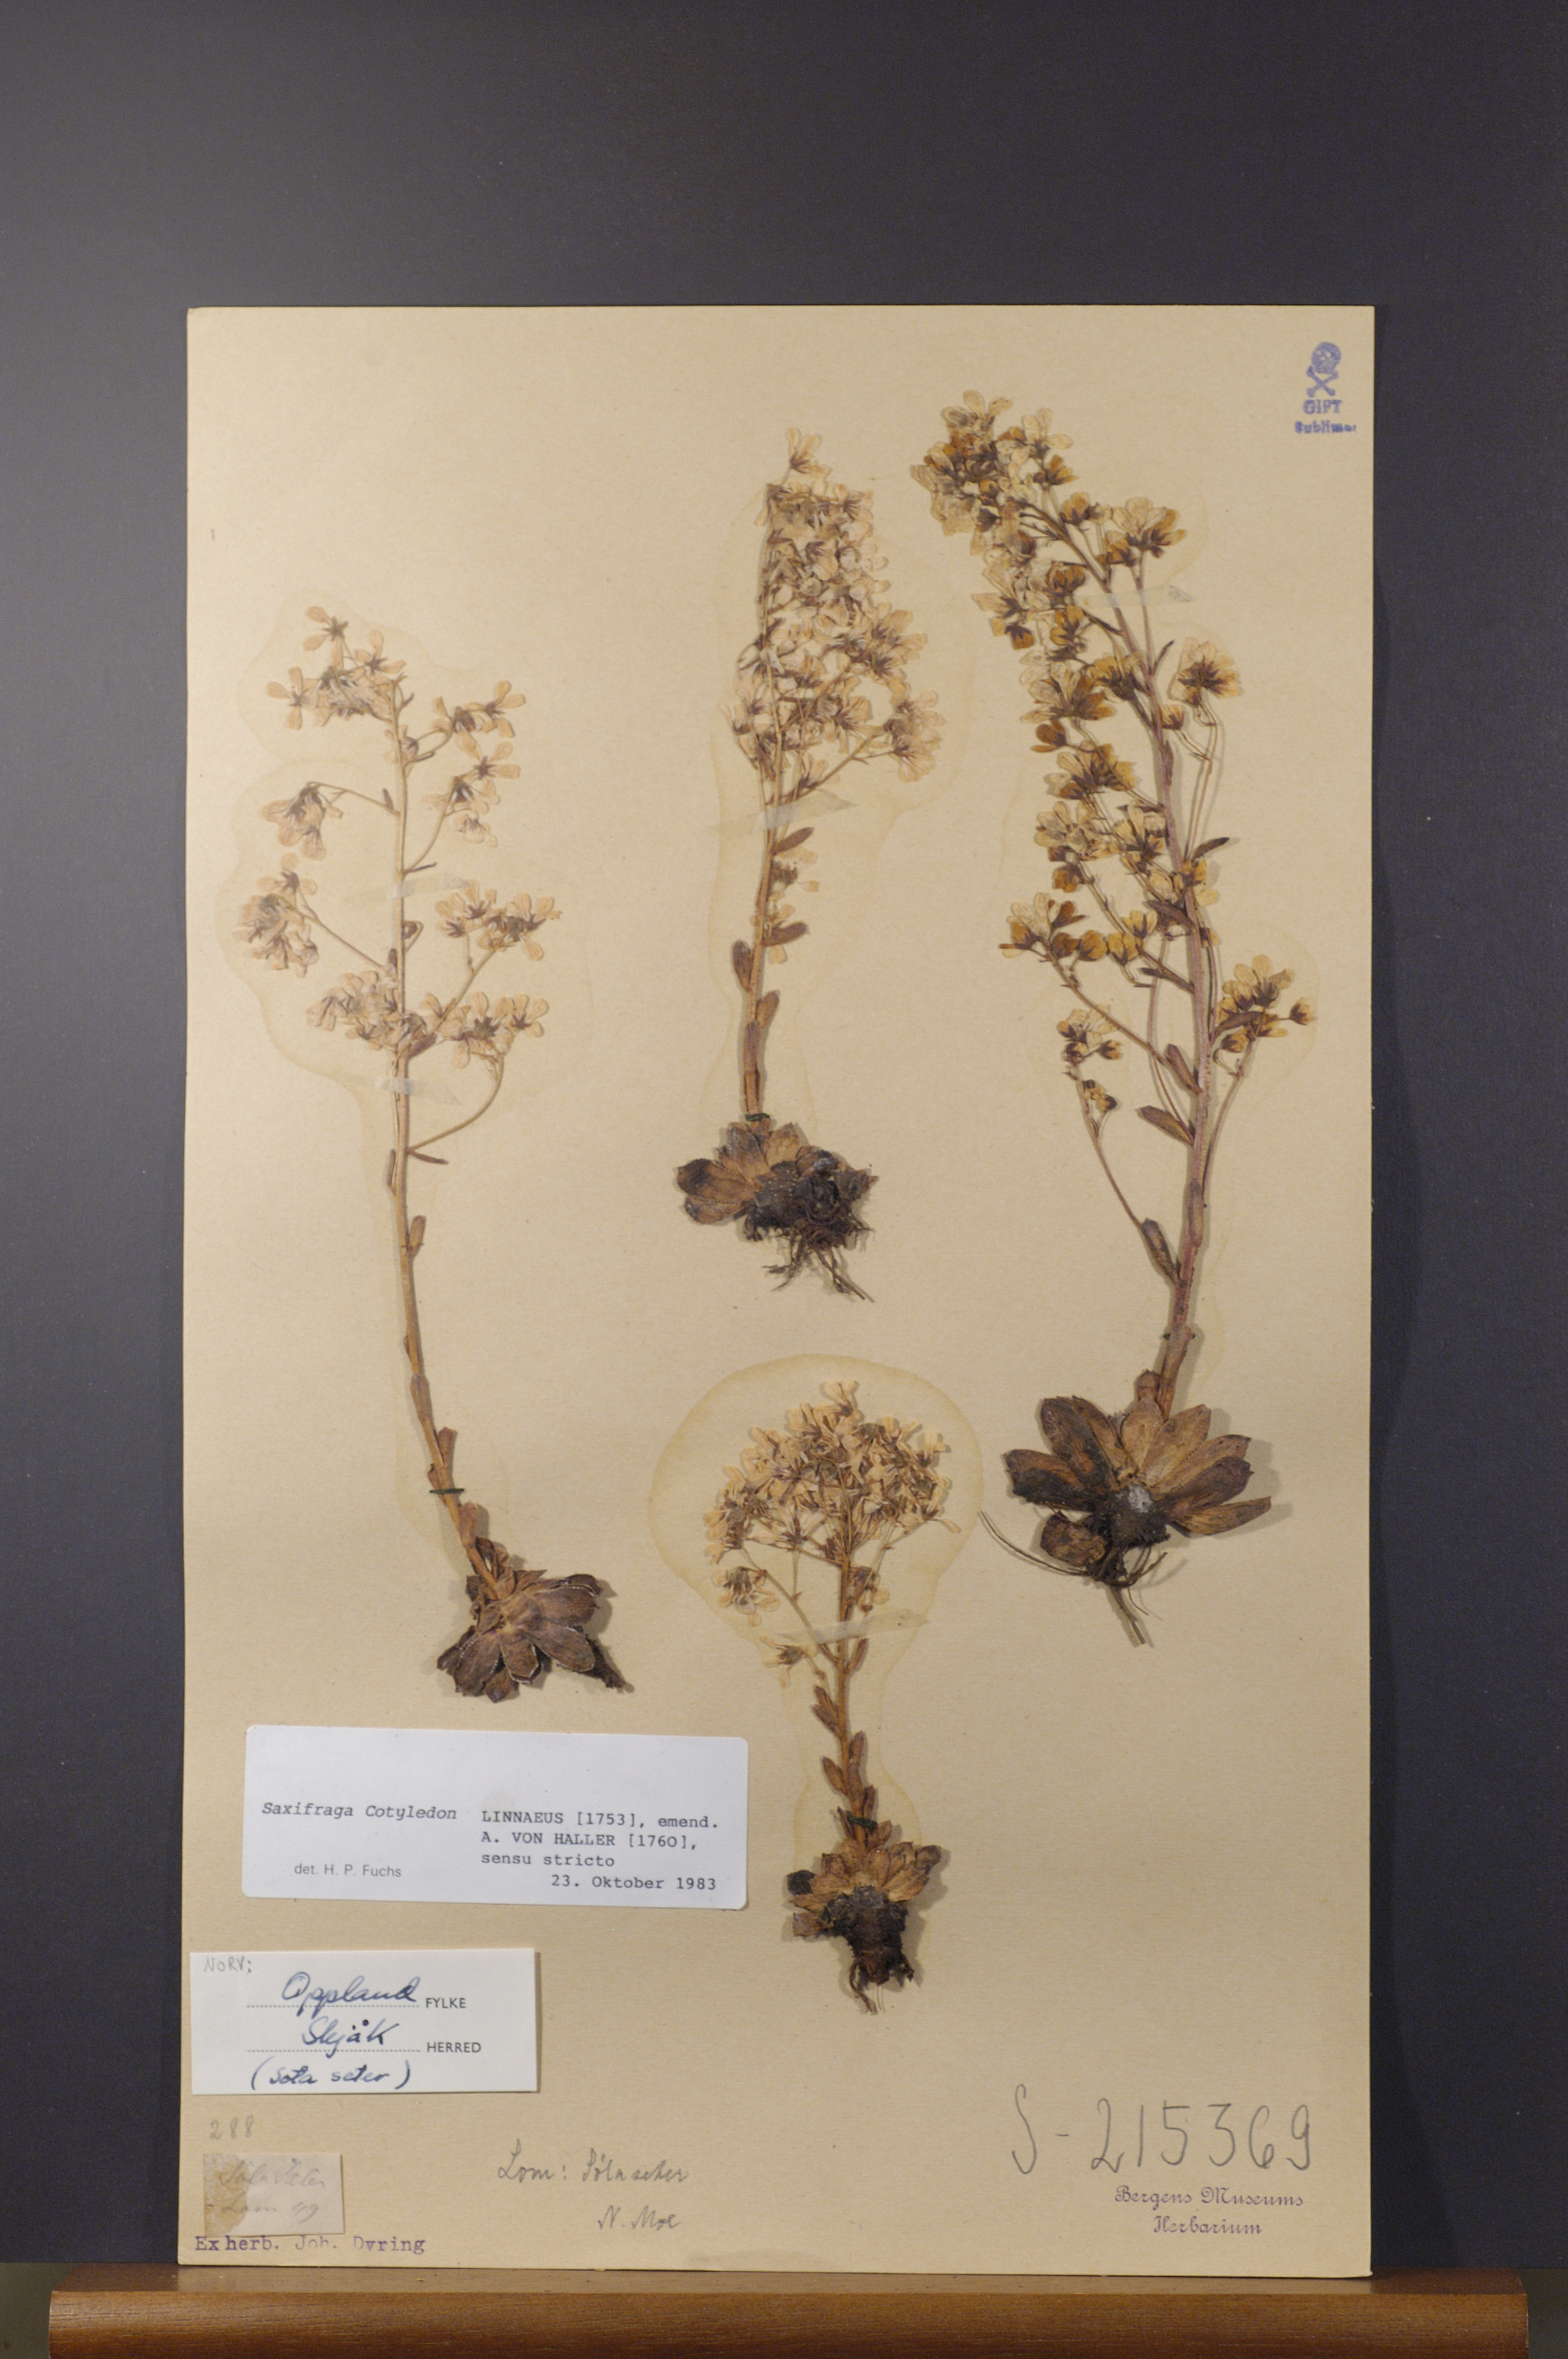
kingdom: Plantae
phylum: Tracheophyta
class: Magnoliopsida
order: Saxifragales
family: Saxifragaceae
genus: Saxifraga
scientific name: Saxifraga cotyledon
